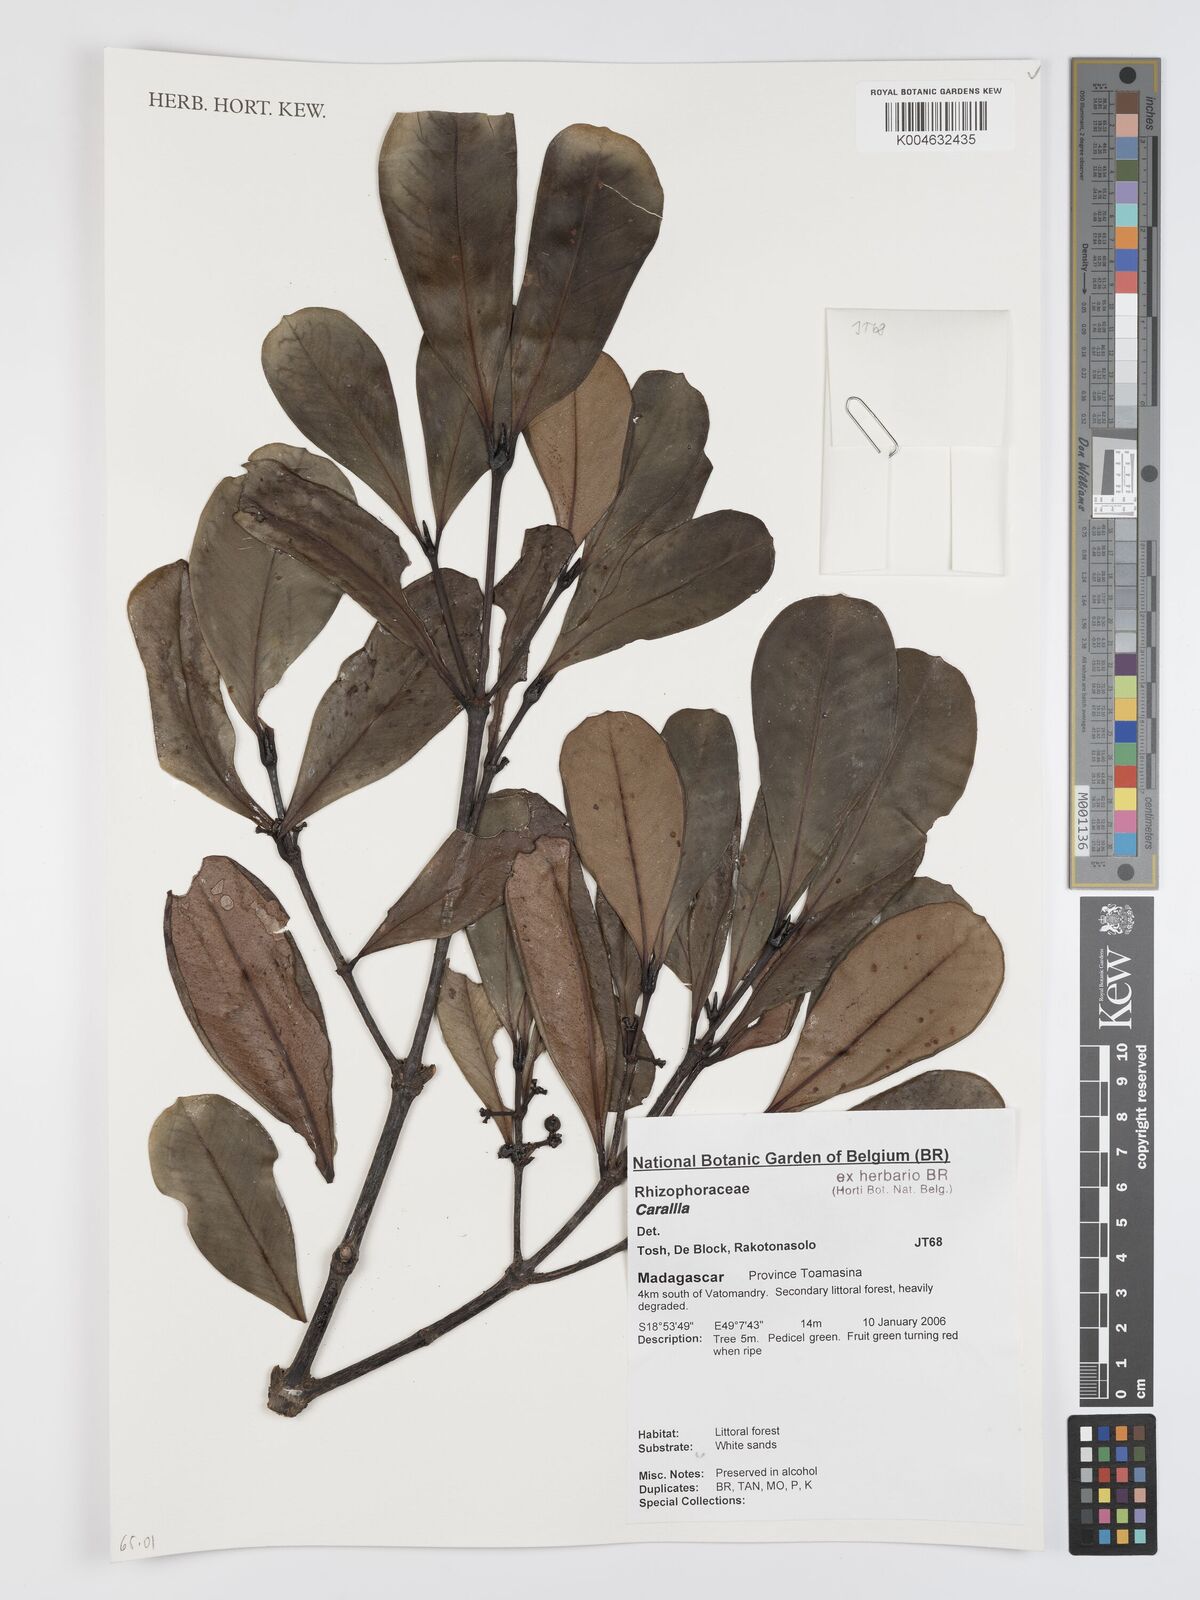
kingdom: Plantae
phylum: Tracheophyta
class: Magnoliopsida
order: Malpighiales
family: Rhizophoraceae
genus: Carallia
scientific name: Carallia
